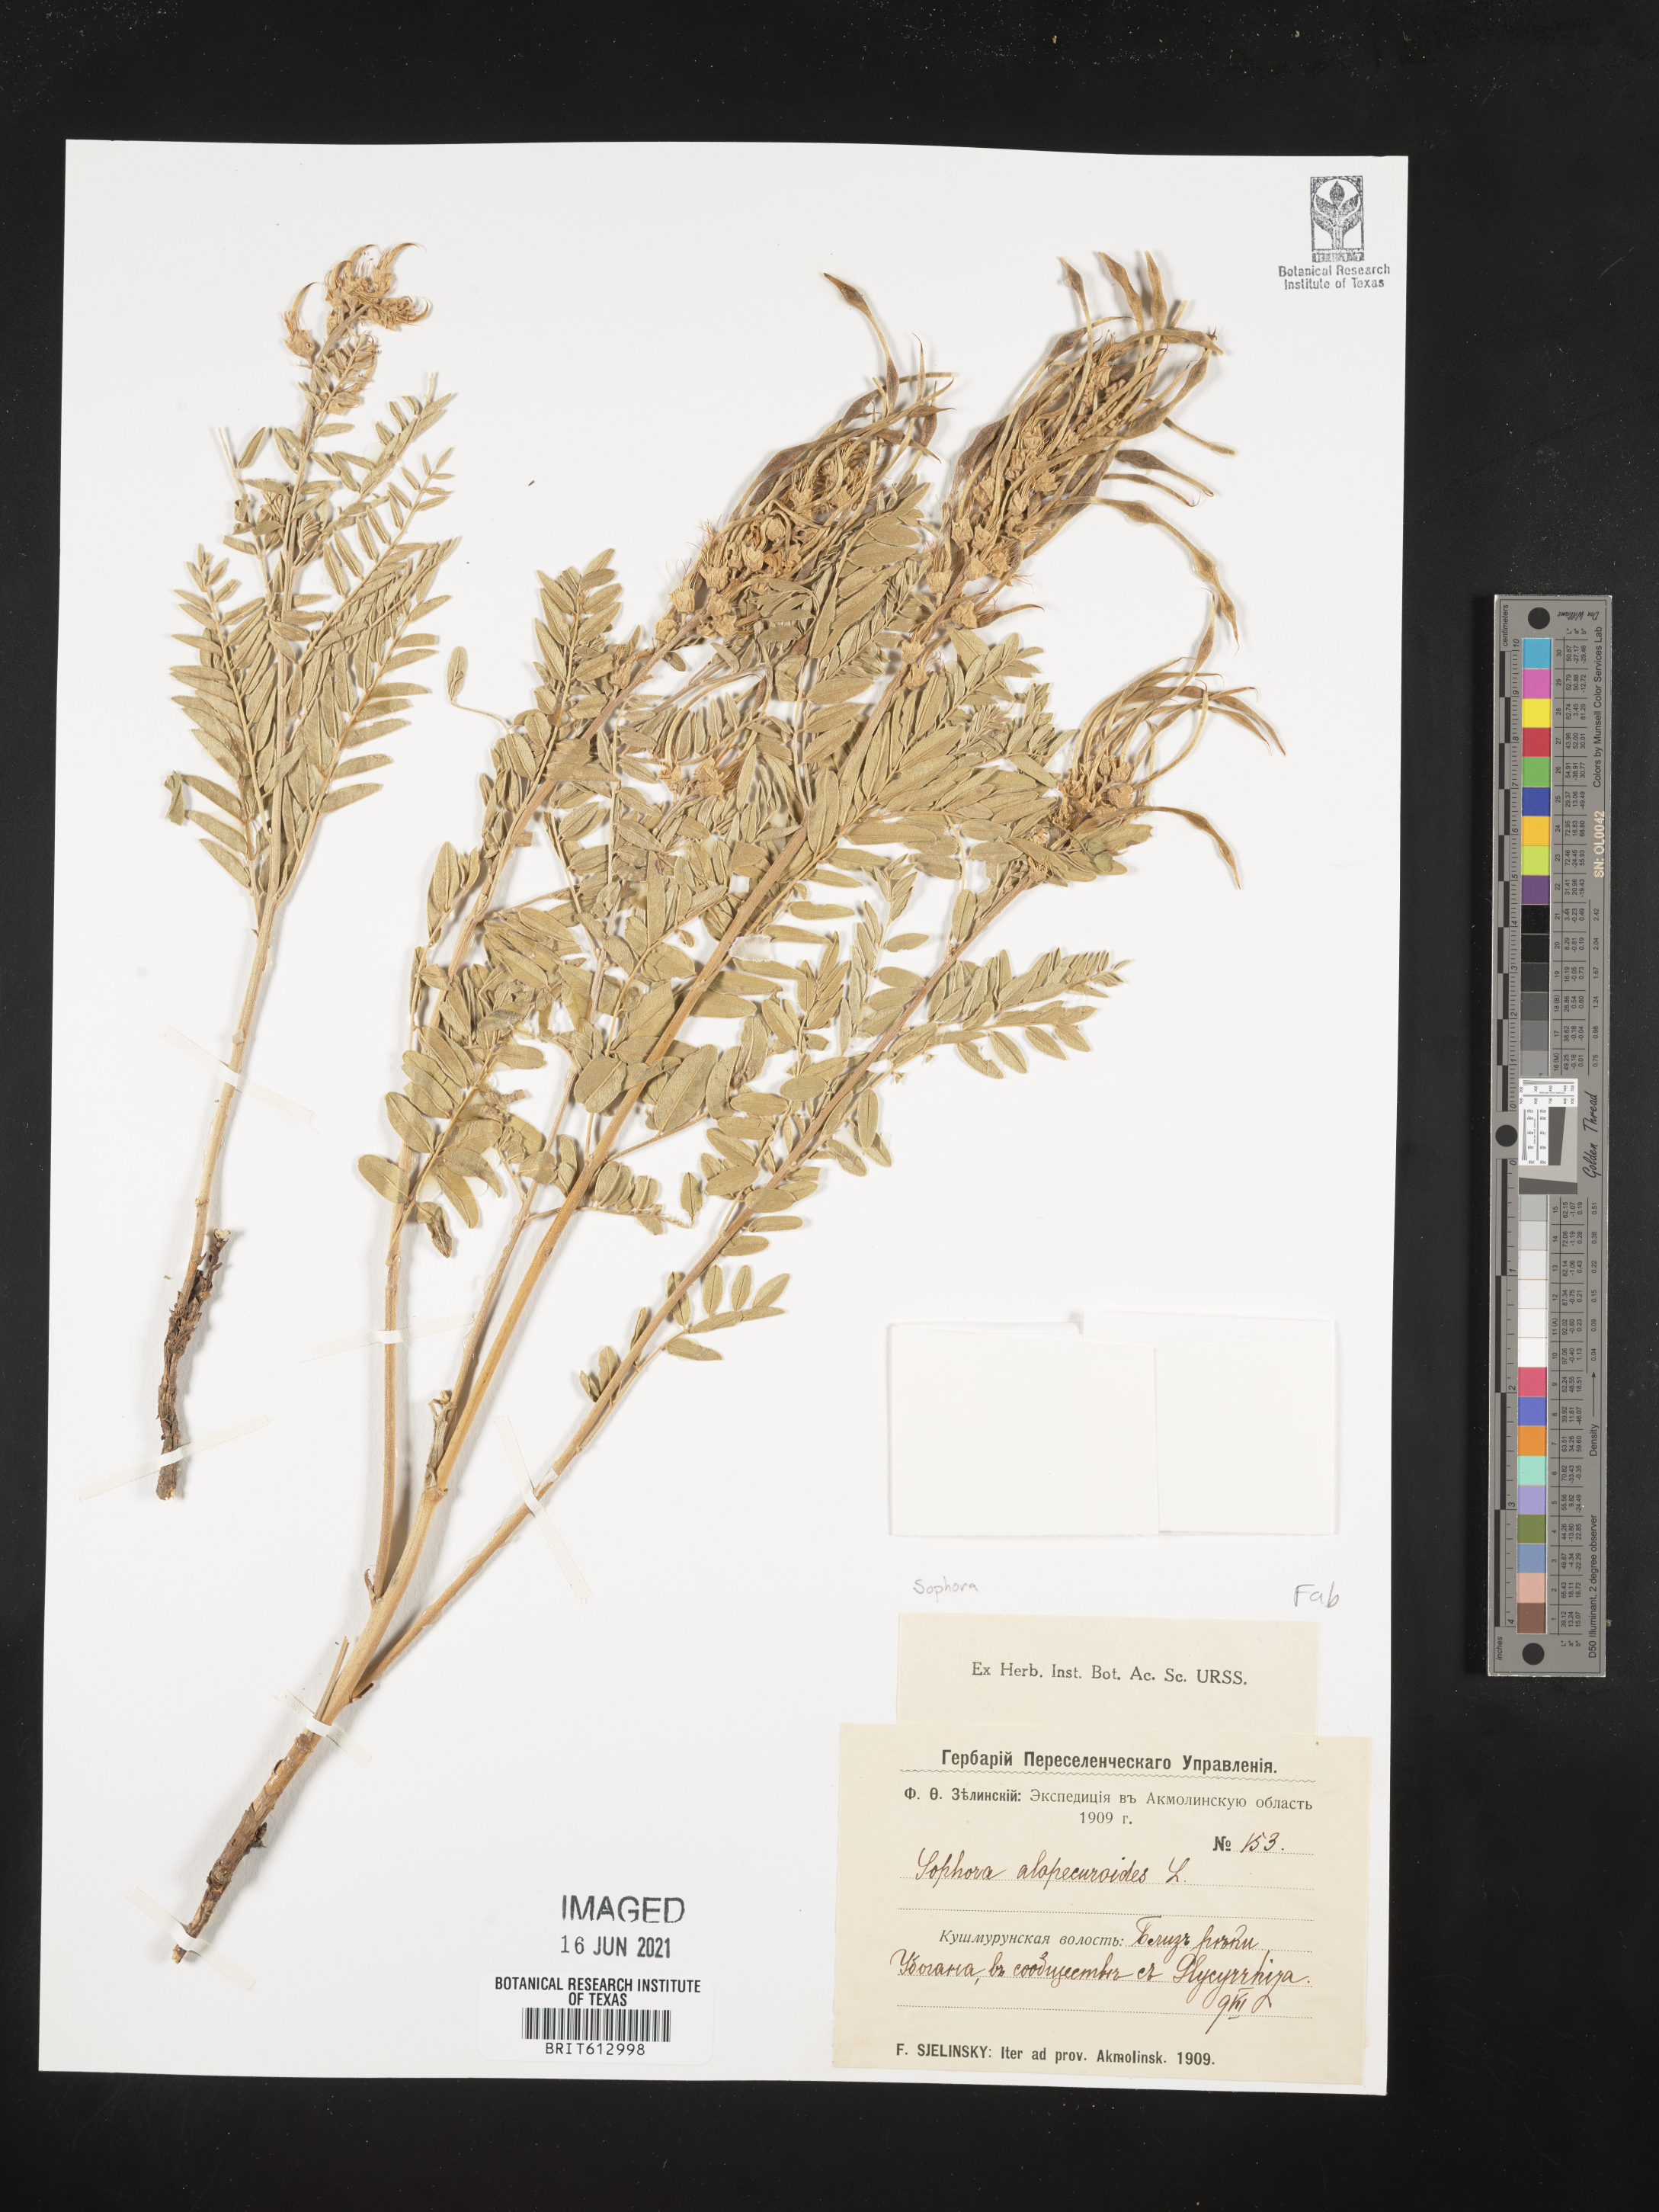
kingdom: Plantae
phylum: Tracheophyta
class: Magnoliopsida
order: Fabales
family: Fabaceae
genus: Sophora
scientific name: Sophora alopecuroides
